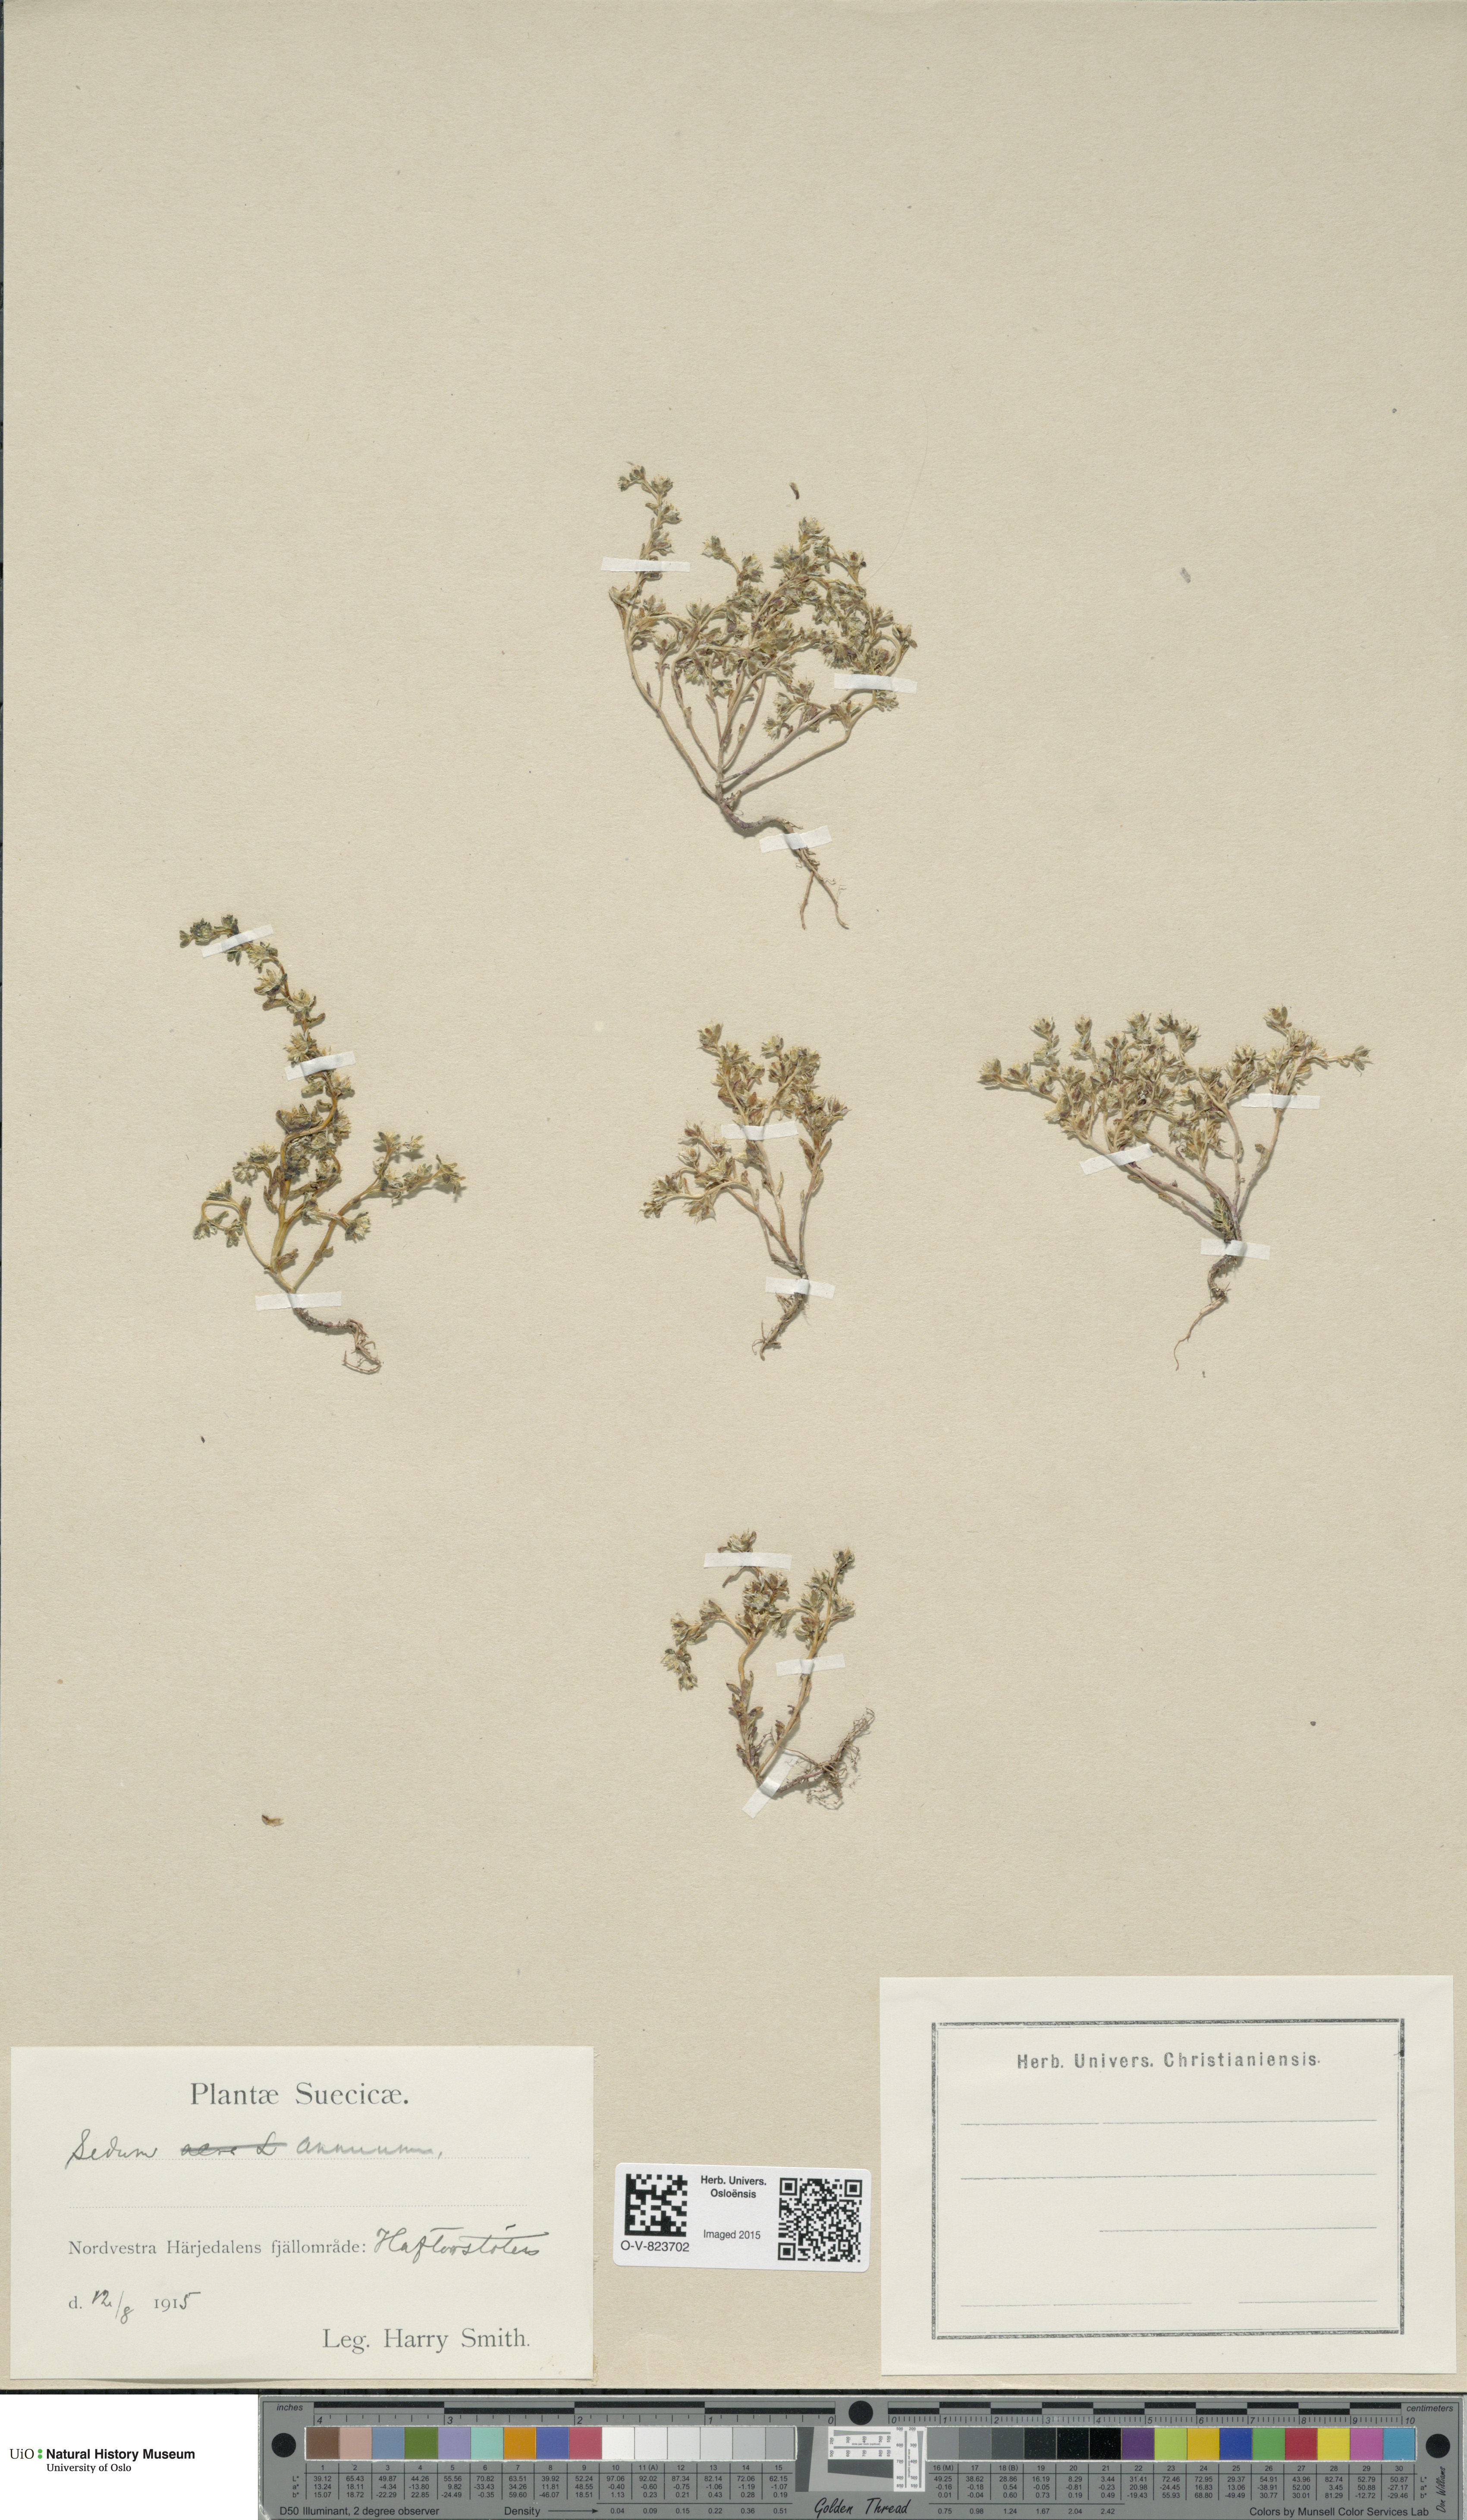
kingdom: Plantae
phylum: Tracheophyta
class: Magnoliopsida
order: Saxifragales
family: Crassulaceae
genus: Sedum
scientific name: Sedum annuum
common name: Annual stonecrop
